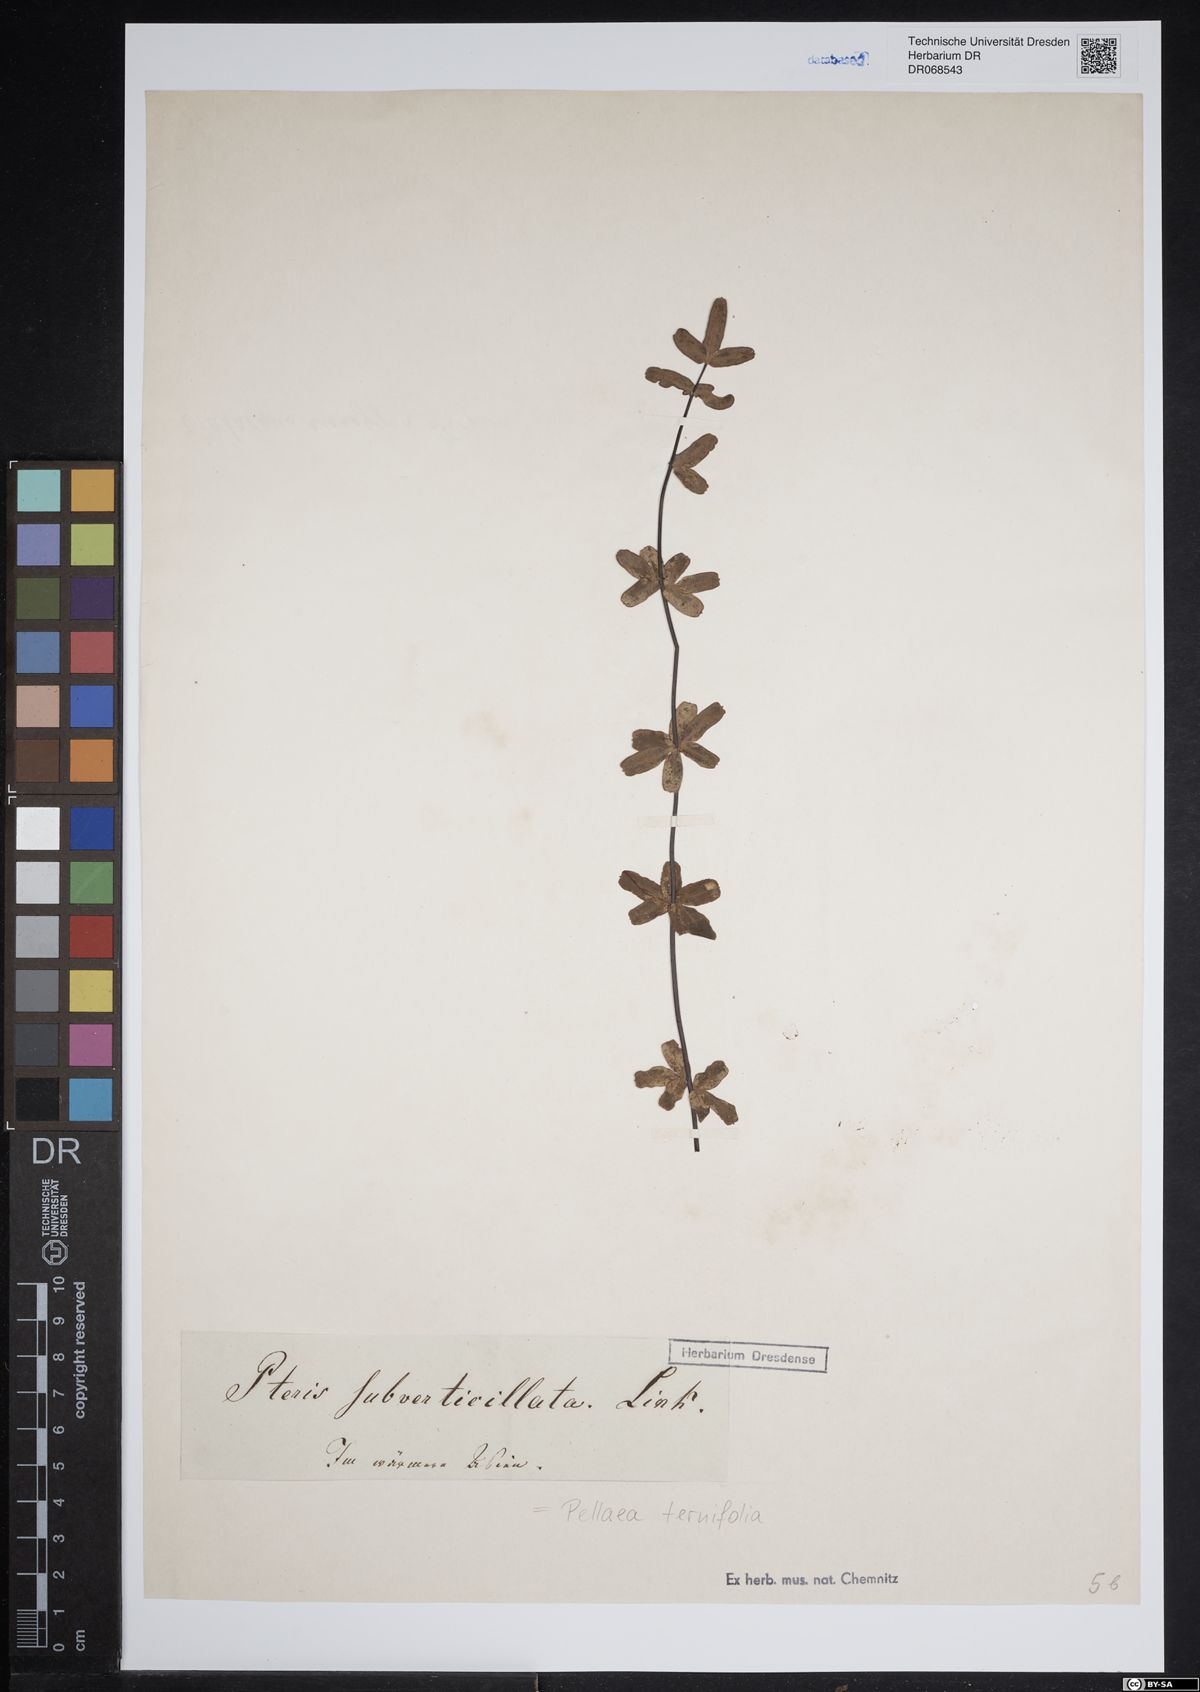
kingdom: Plantae
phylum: Tracheophyta
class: Polypodiopsida
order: Polypodiales
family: Pteridaceae
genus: Pellaea
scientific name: Pellaea ternifolia
